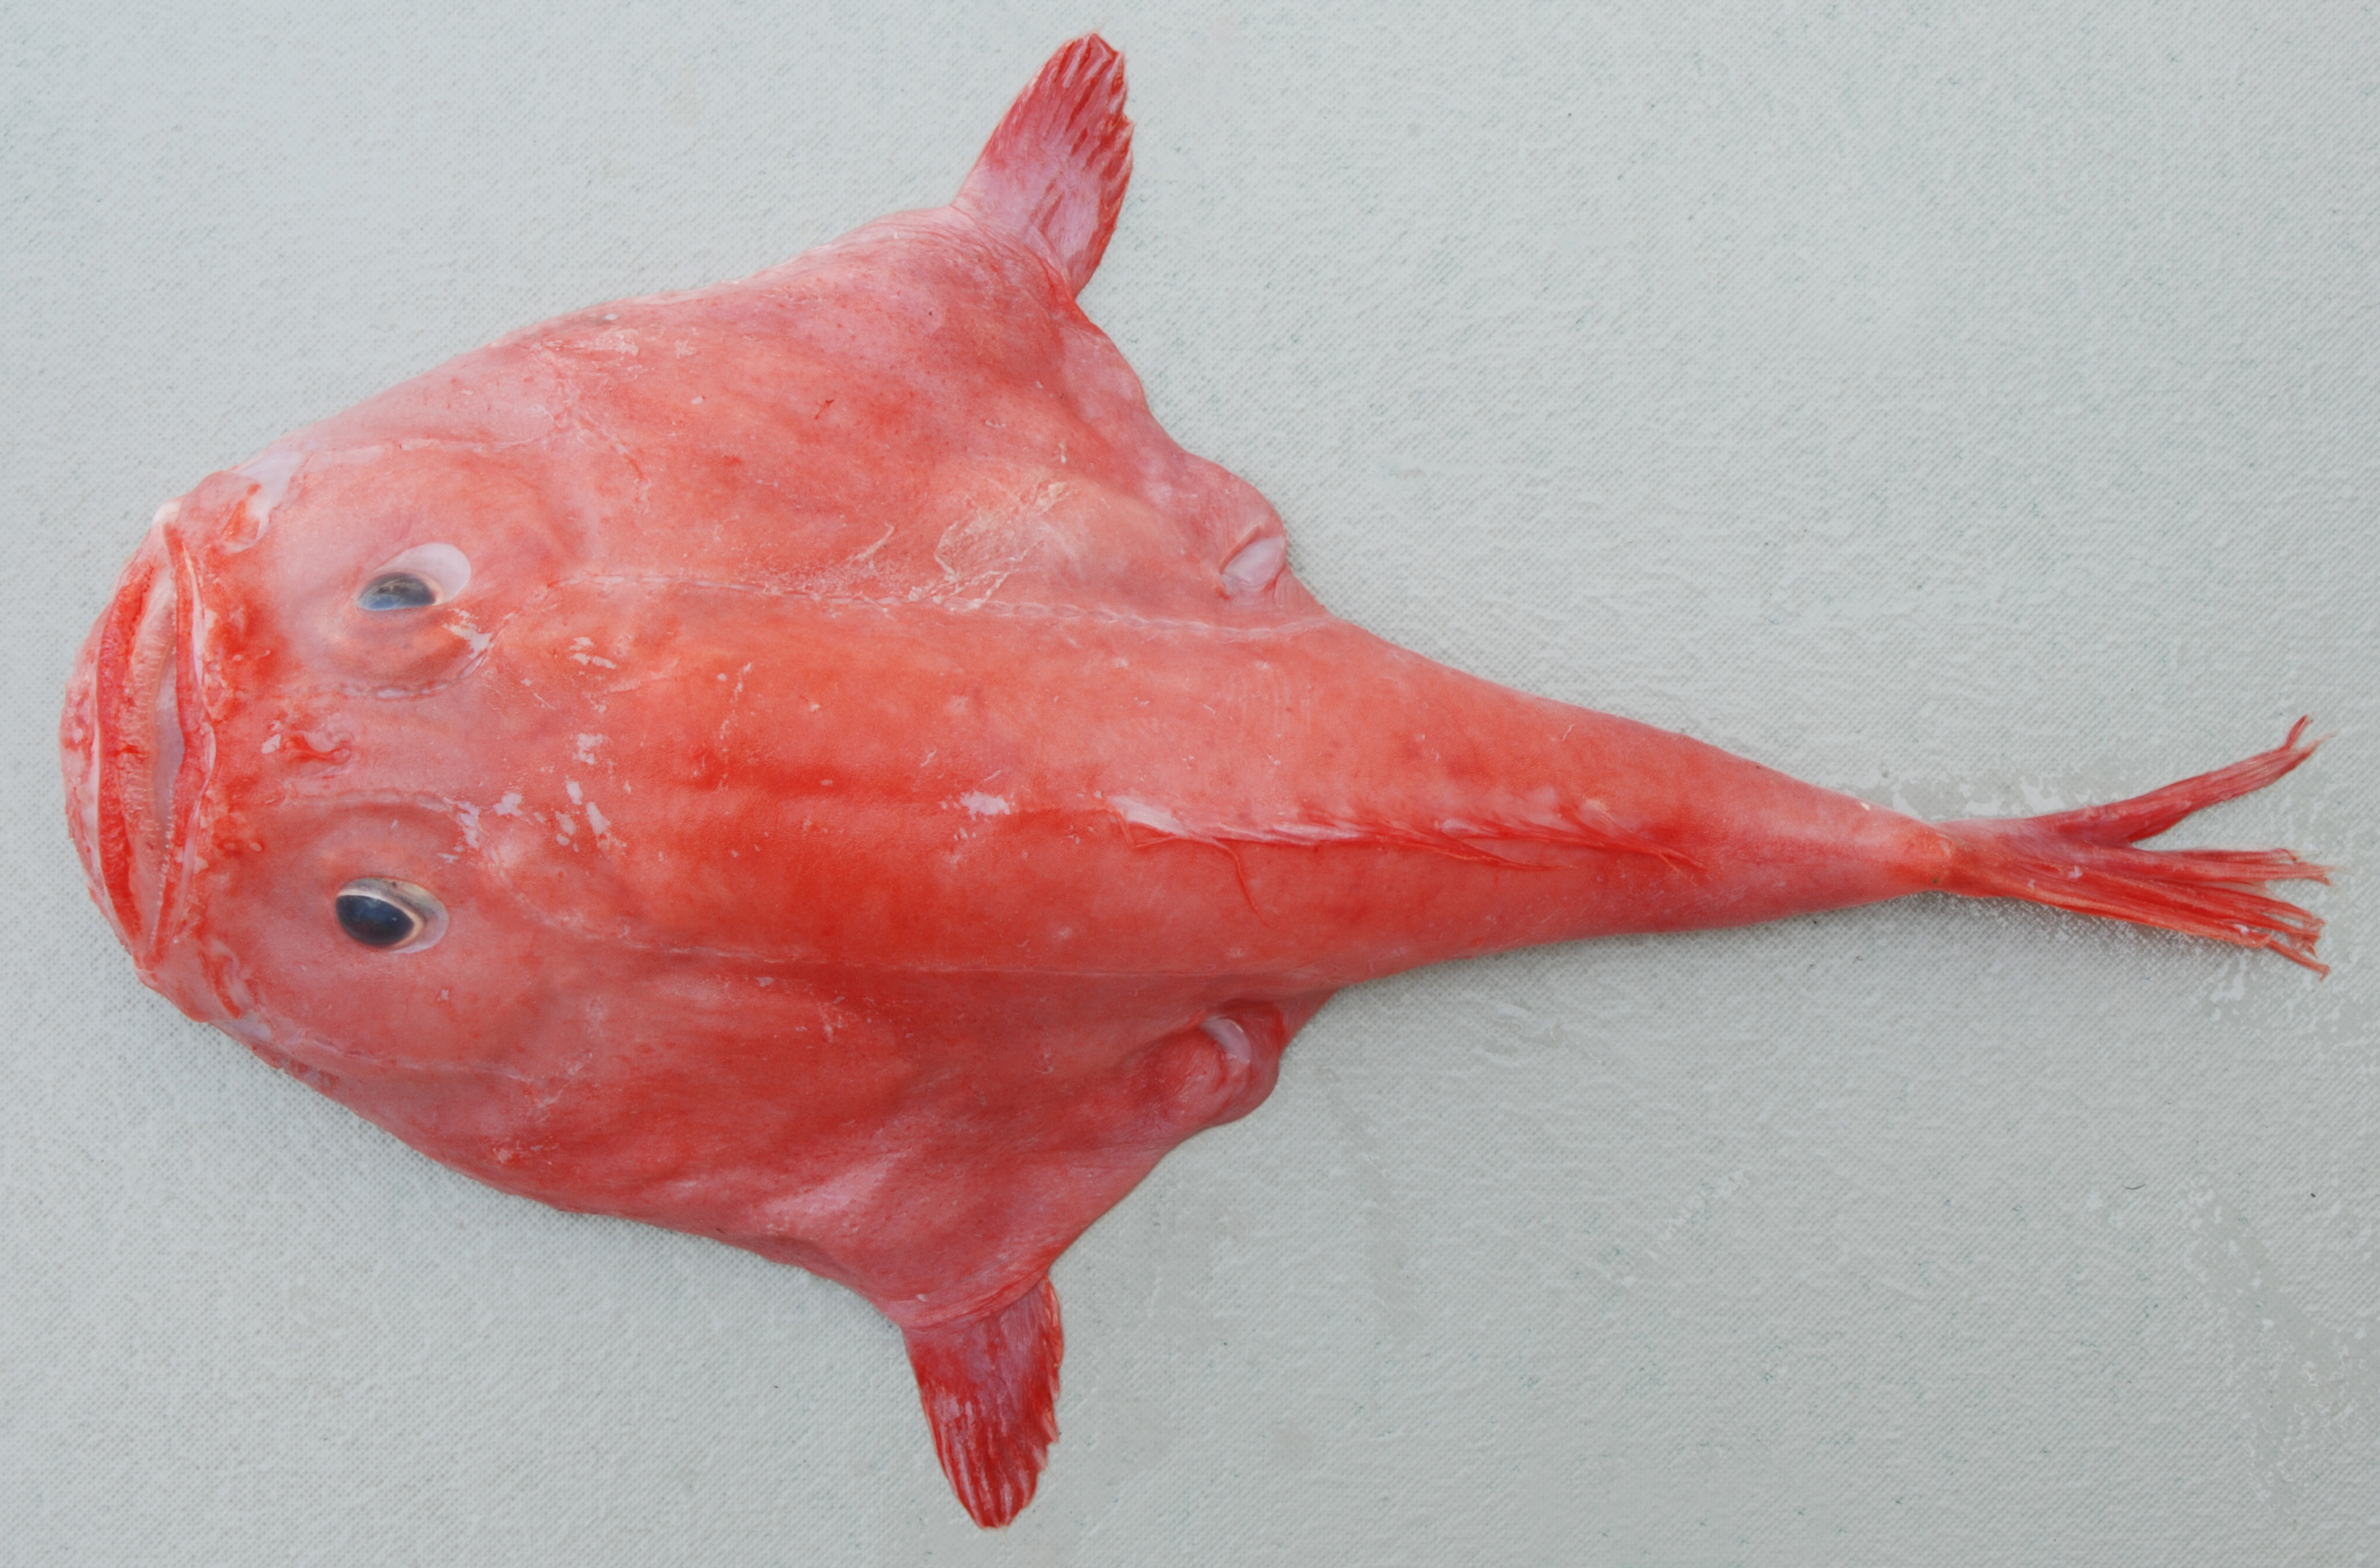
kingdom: Animalia
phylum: Chordata
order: Lophiiformes
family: Chaunacidae
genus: Chaunax
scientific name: Chaunax fimbriatus
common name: Tassled coffinfish
